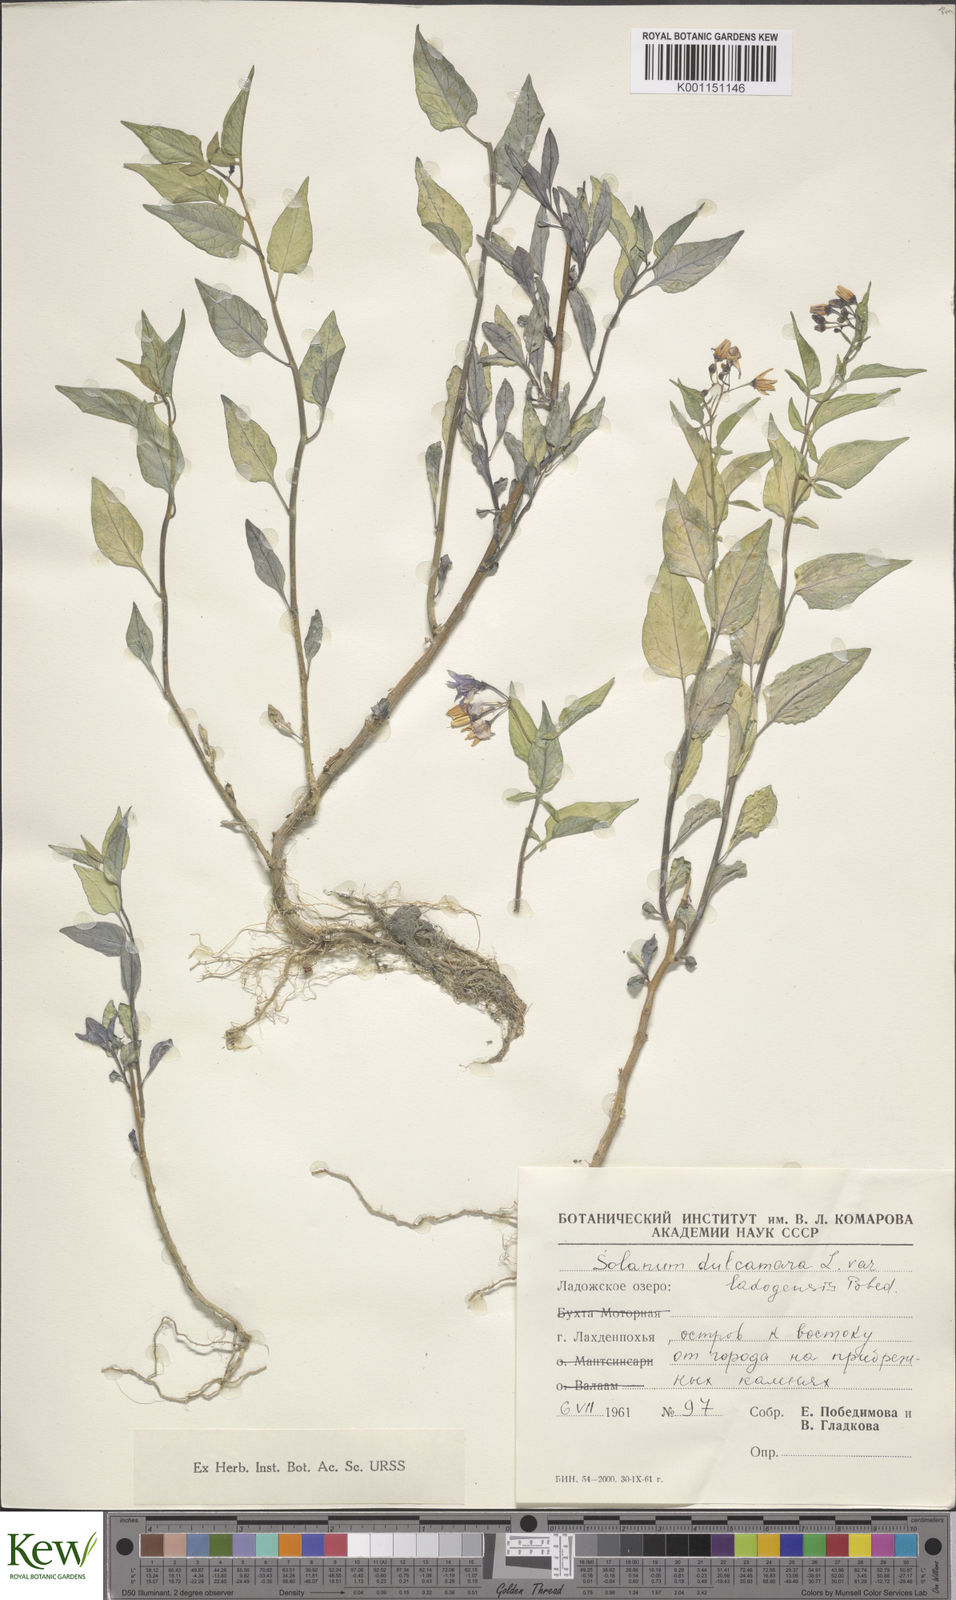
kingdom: Plantae
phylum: Tracheophyta
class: Magnoliopsida
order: Solanales
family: Solanaceae
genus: Solanum
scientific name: Solanum dulcamara
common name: Climbing nightshade
